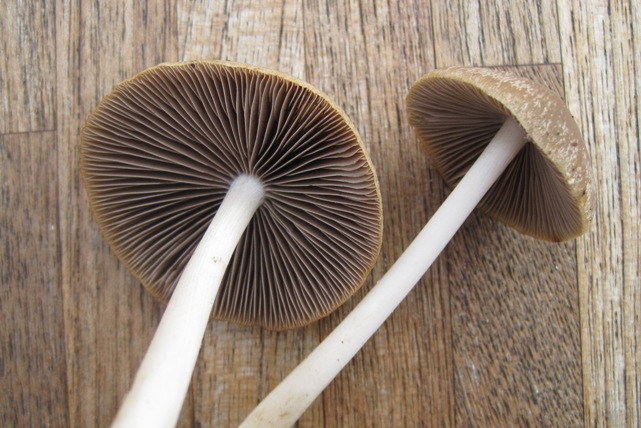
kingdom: Fungi
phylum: Basidiomycota
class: Agaricomycetes
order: Agaricales
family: Psathyrellaceae
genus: Candolleomyces
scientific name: Candolleomyces candolleanus
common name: Candolles mørkhat
